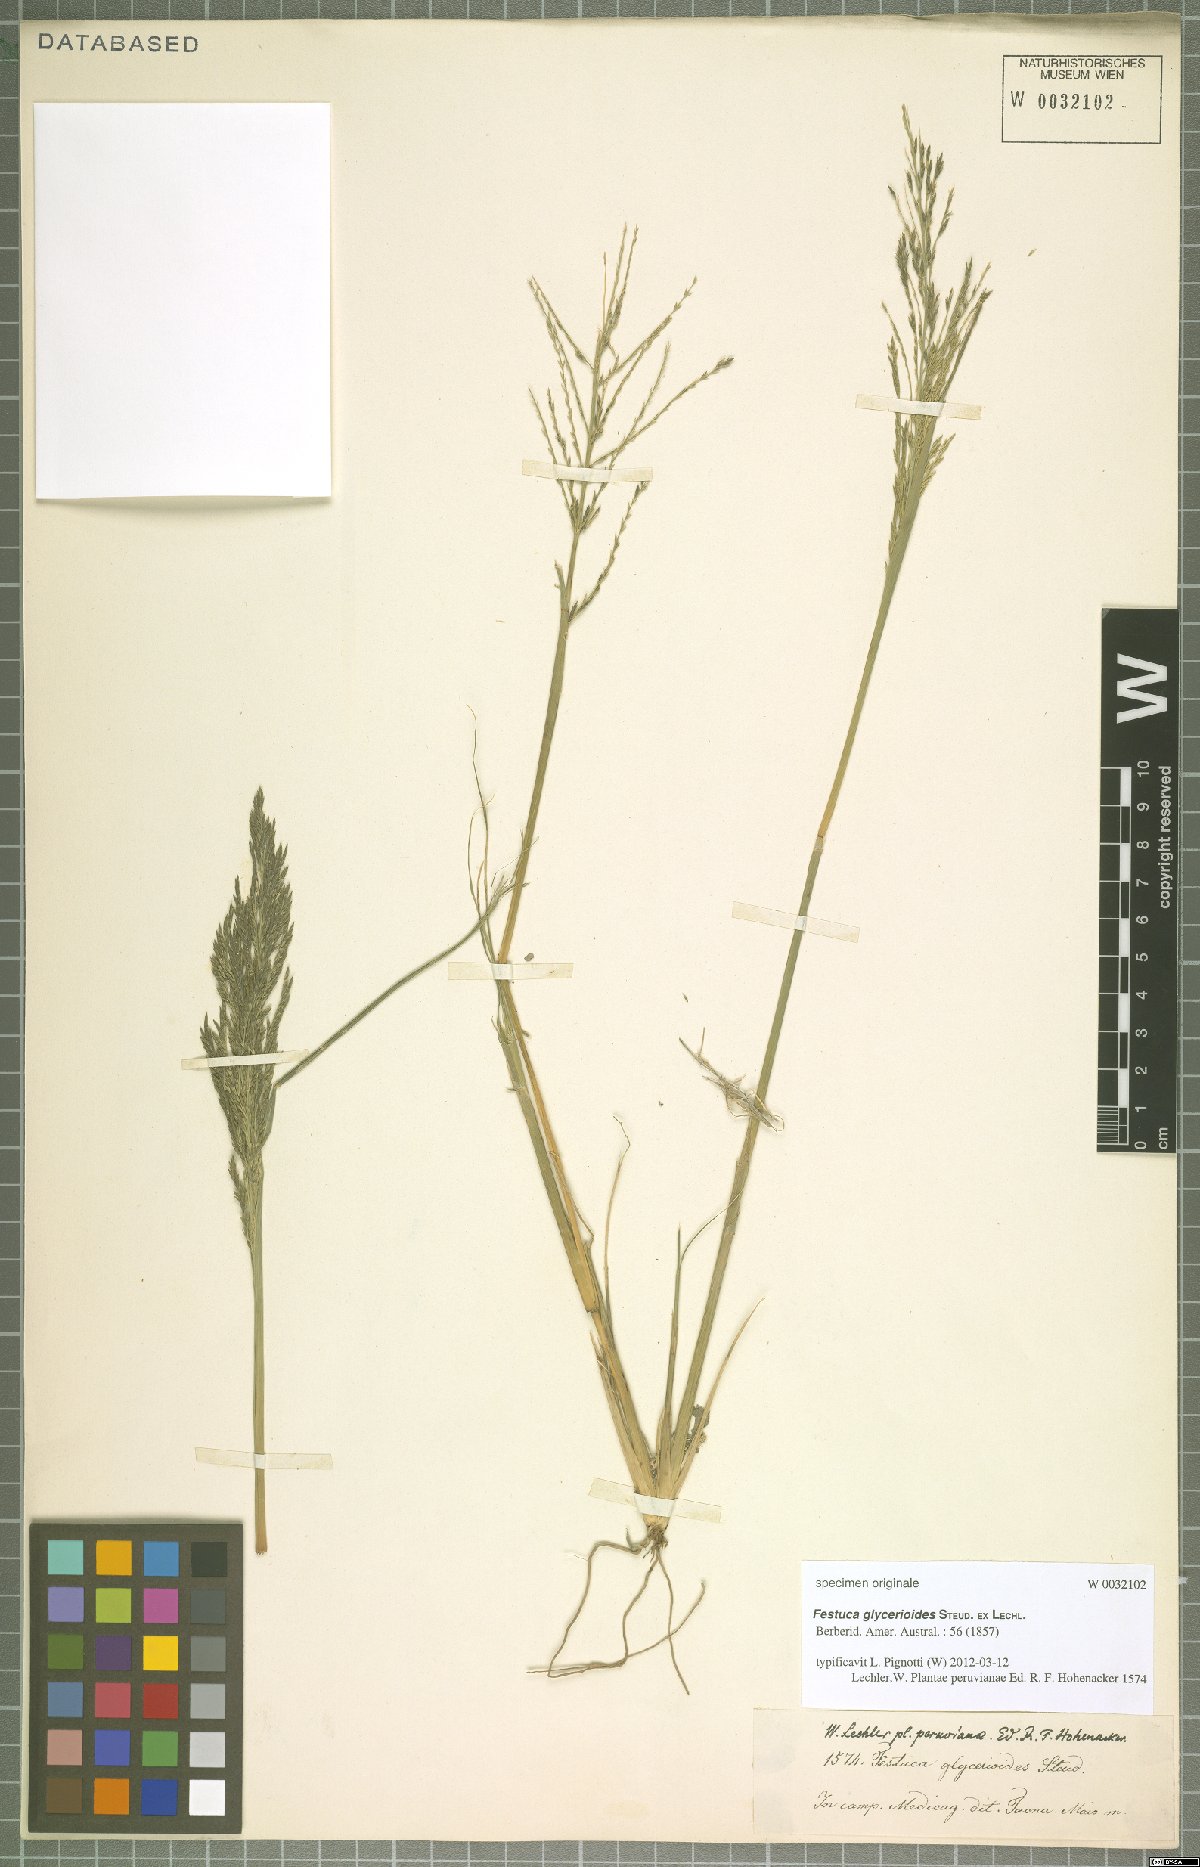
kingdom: Plantae
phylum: Tracheophyta
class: Liliopsida
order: Poales
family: Poaceae
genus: Diplachne
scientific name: Diplachne fusca
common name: Brown beetle grass
